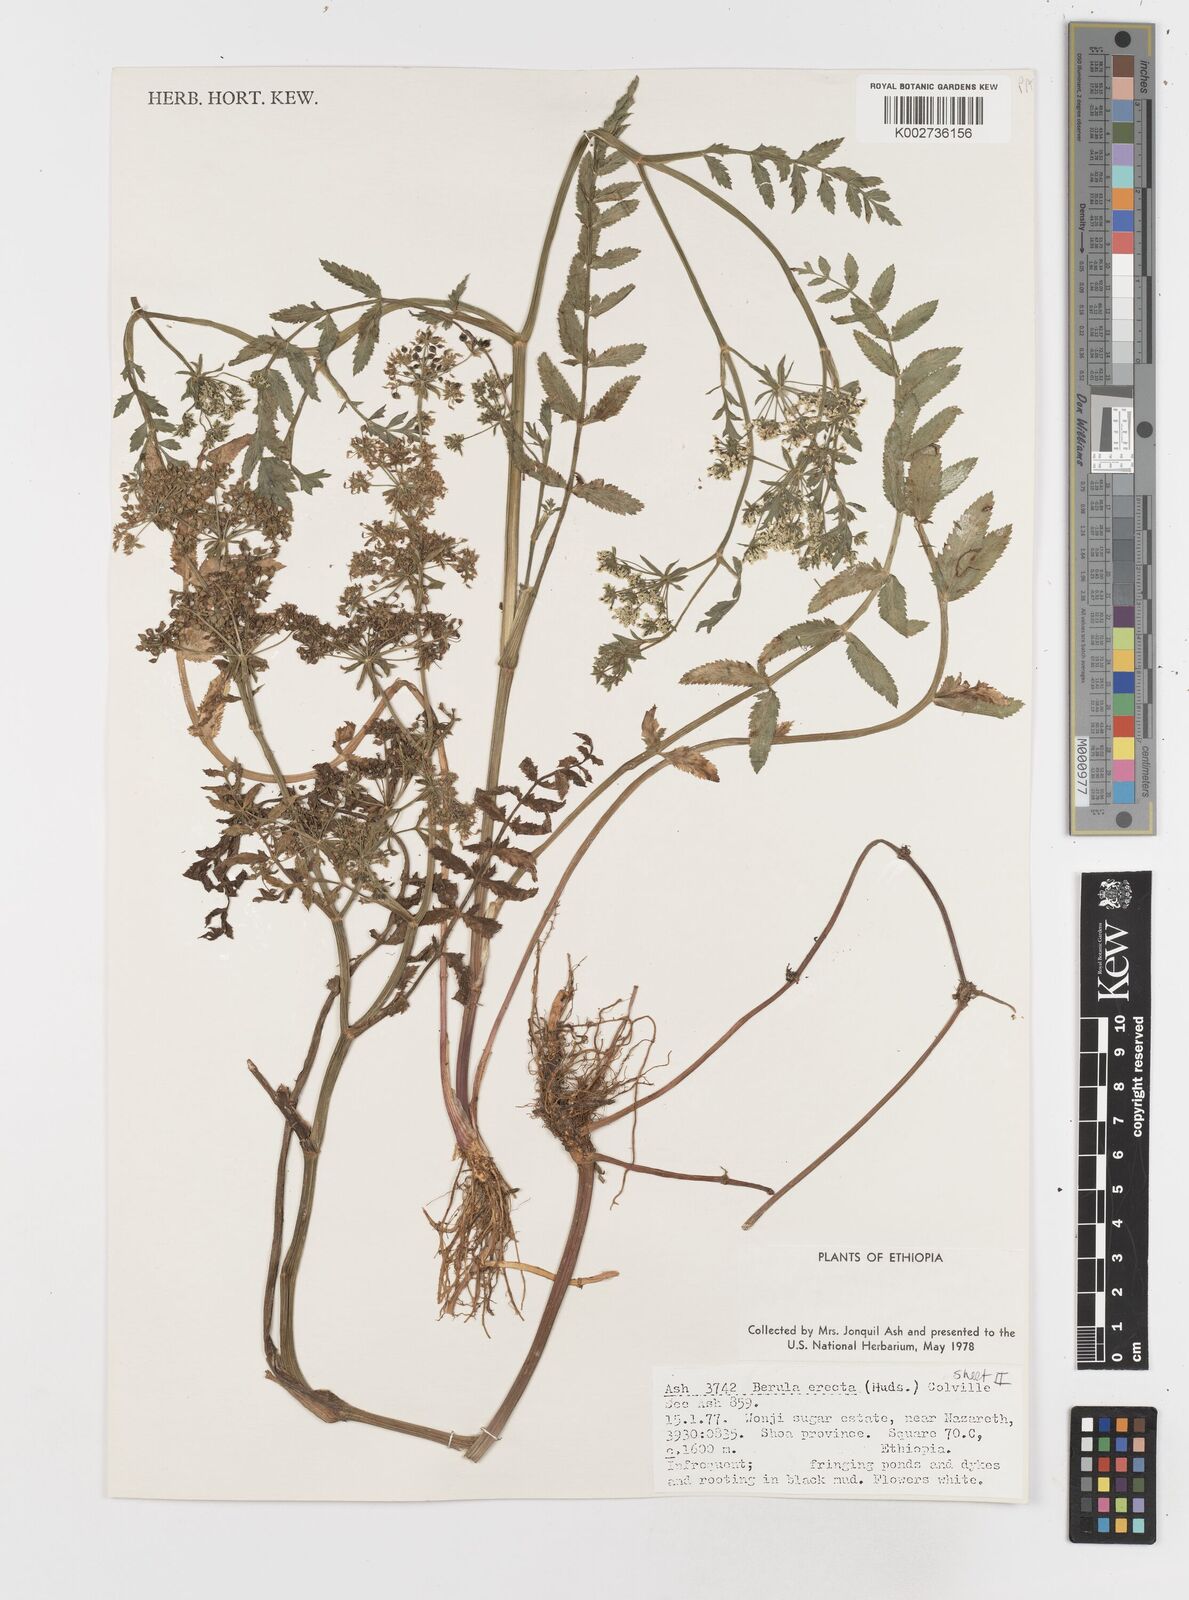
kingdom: Plantae
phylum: Tracheophyta
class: Magnoliopsida
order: Apiales
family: Apiaceae
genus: Berula
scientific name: Berula erecta
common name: Lesser water-parsnip
